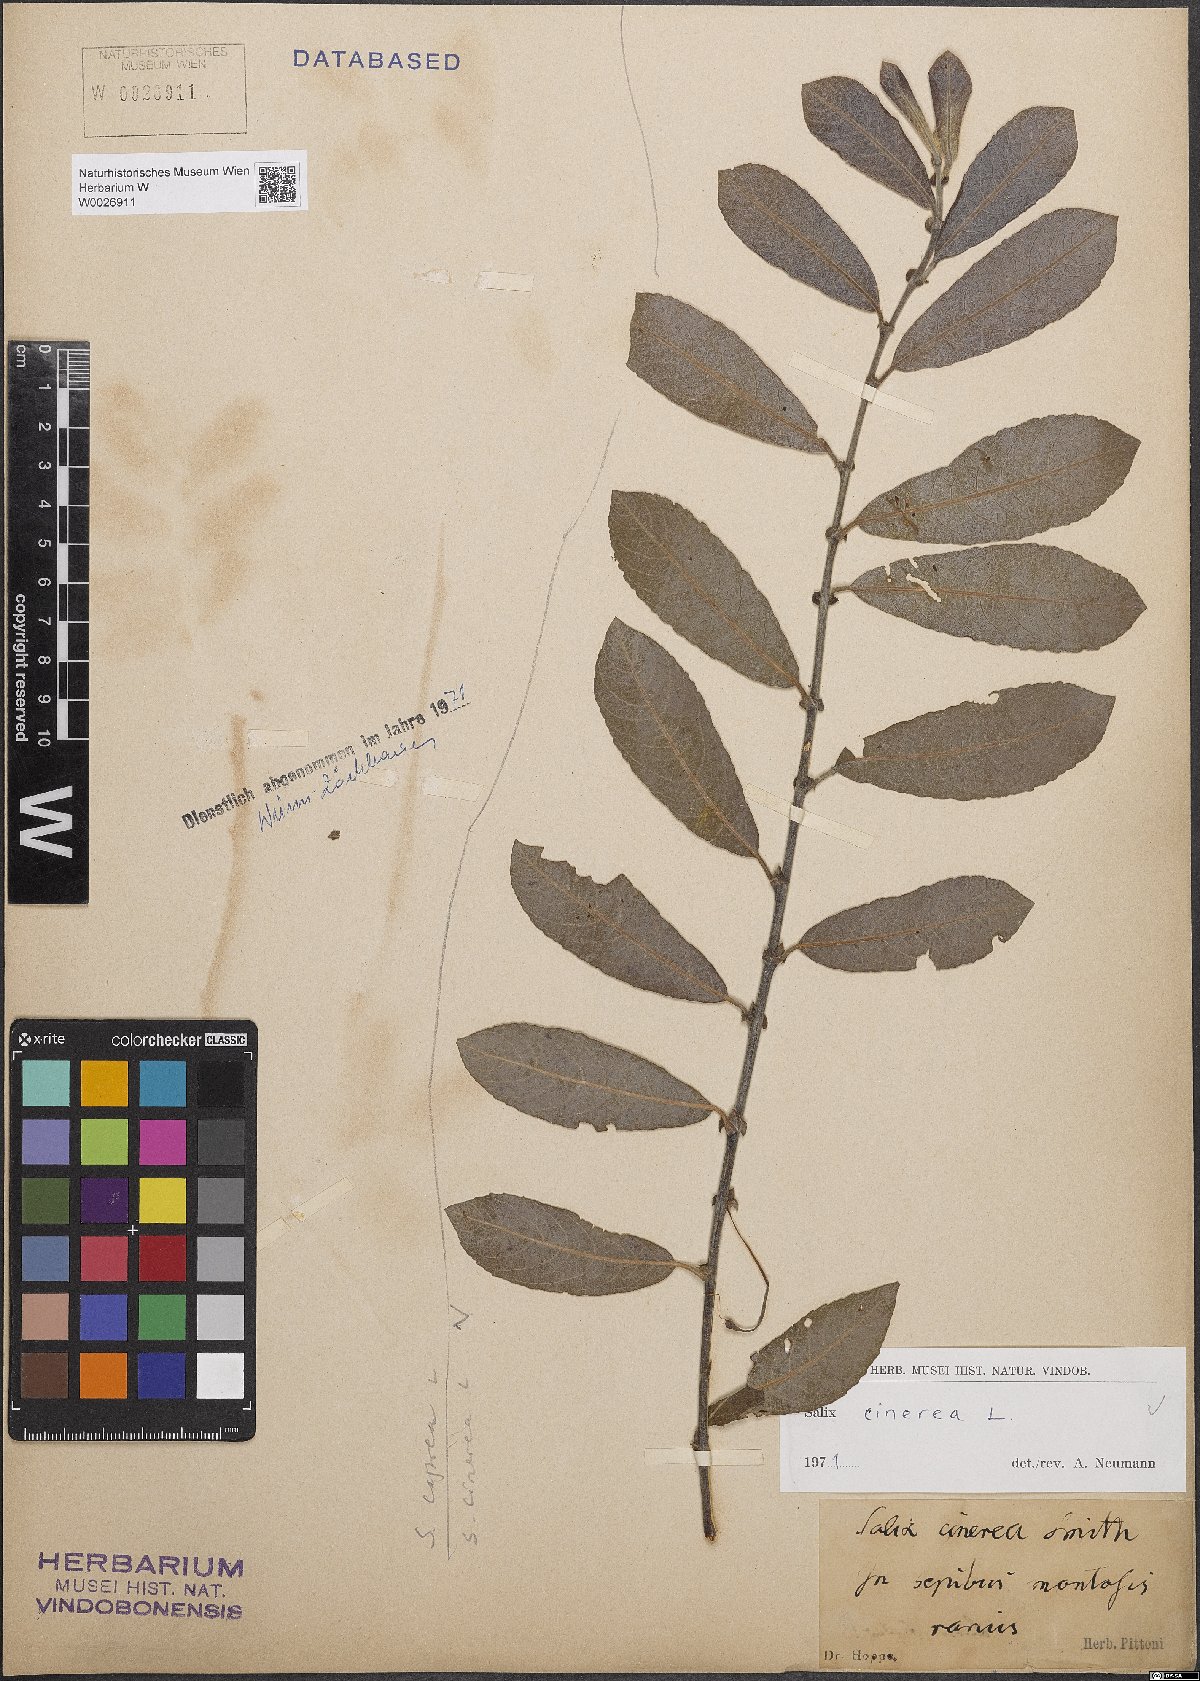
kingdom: Plantae
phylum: Tracheophyta
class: Magnoliopsida
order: Malpighiales
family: Salicaceae
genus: Salix
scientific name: Salix cinerea
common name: Common sallow
